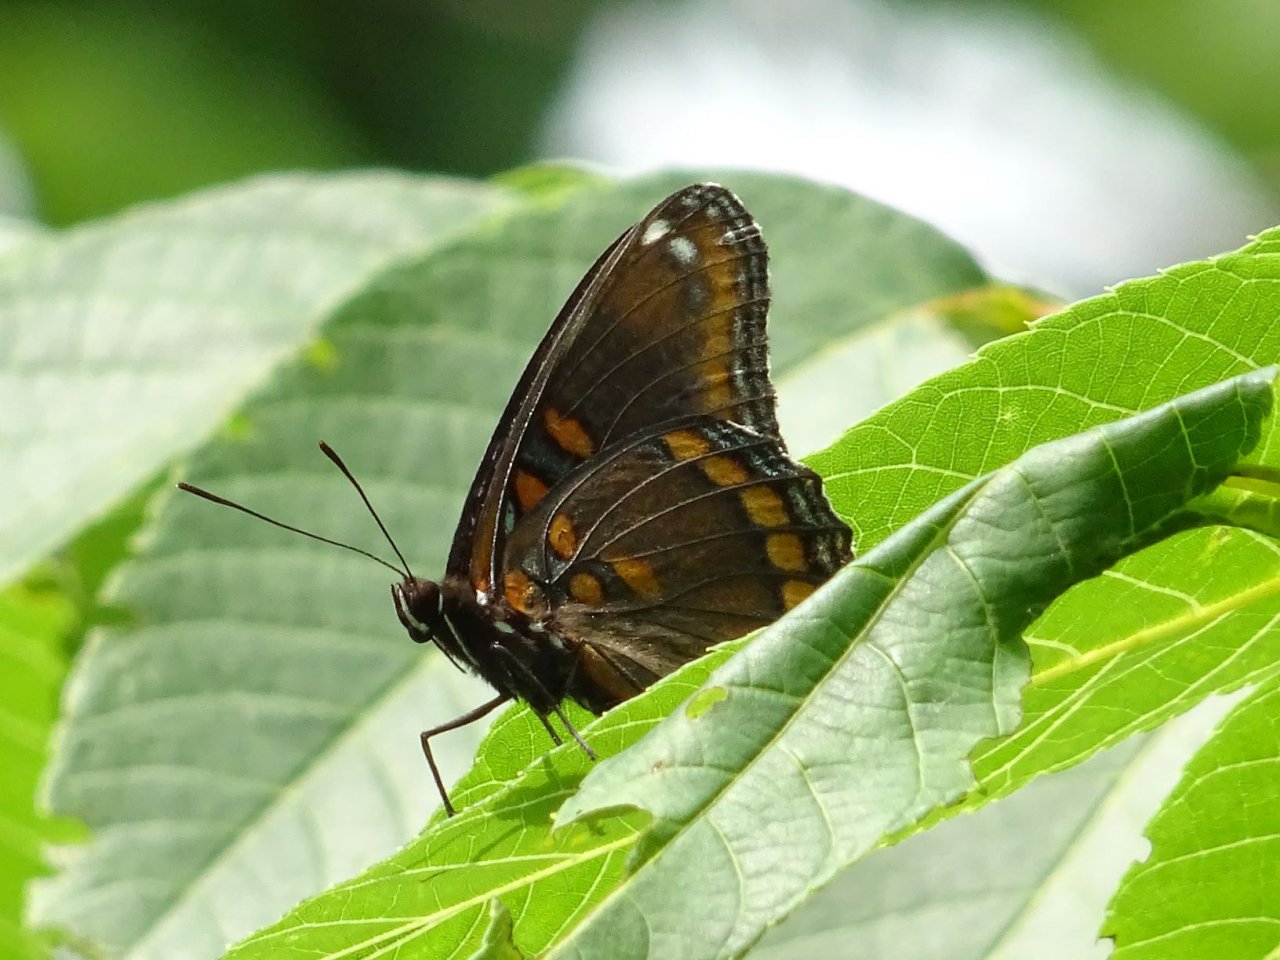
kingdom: Animalia
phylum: Arthropoda
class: Insecta
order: Lepidoptera
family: Nymphalidae
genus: Limenitis
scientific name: Limenitis astyanax
